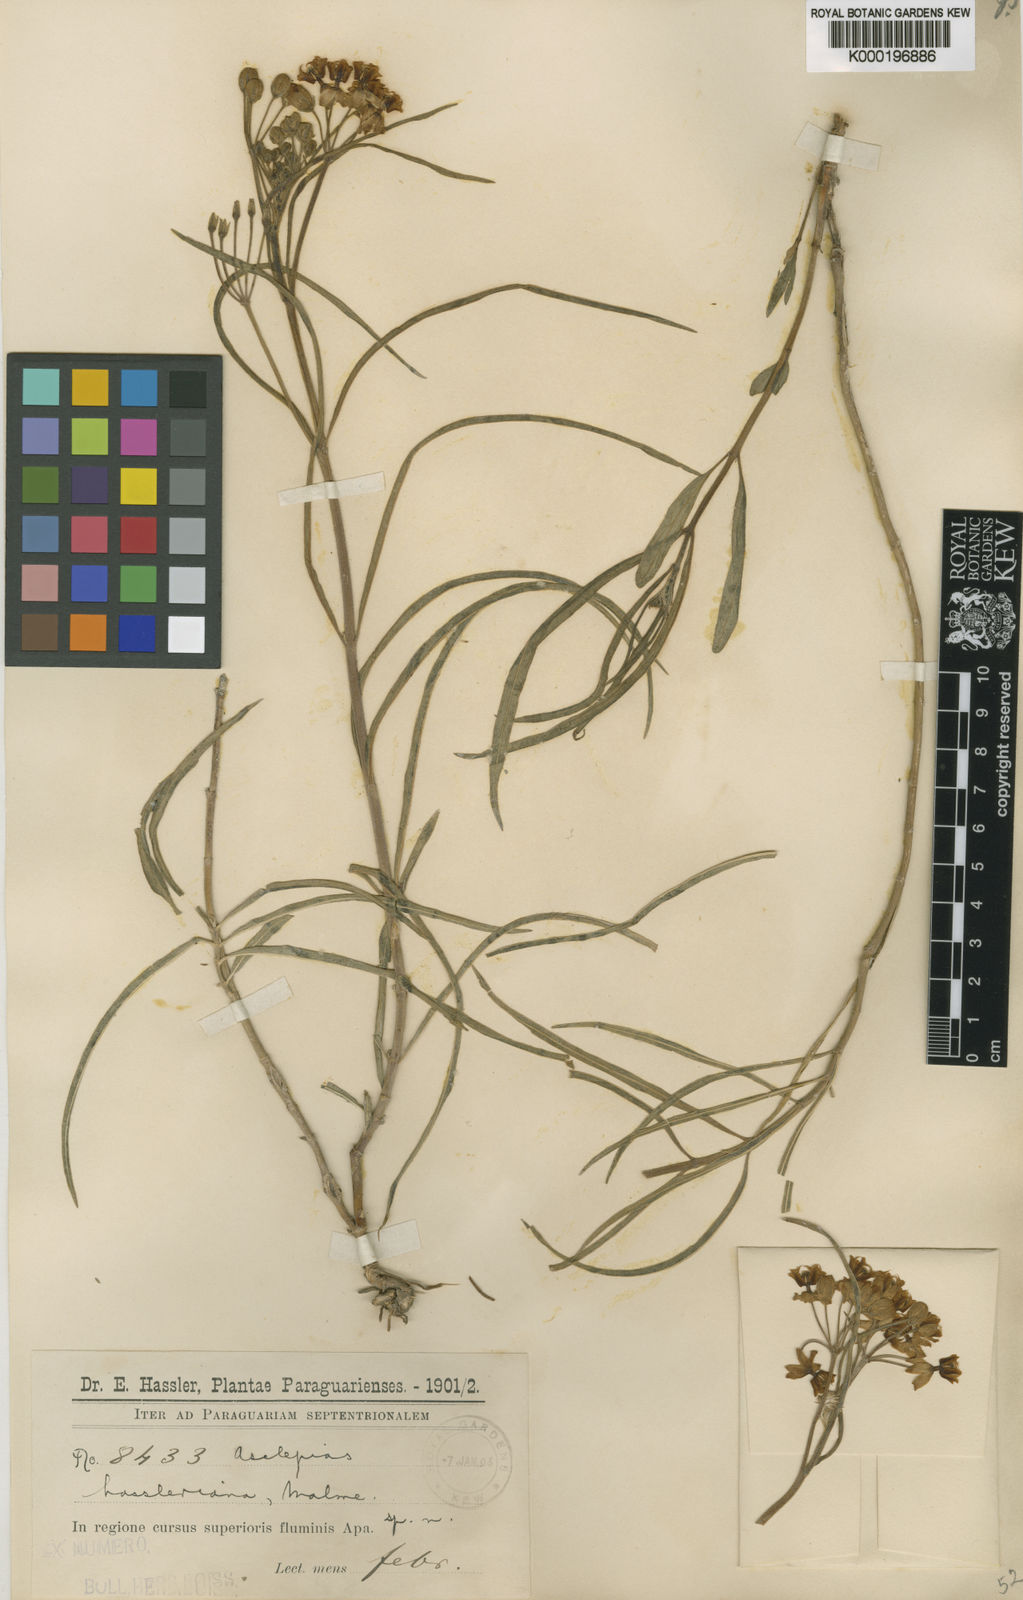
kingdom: Plantae
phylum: Tracheophyta
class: Magnoliopsida
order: Gentianales
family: Apocynaceae
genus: Asclepias
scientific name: Asclepias mellodora
